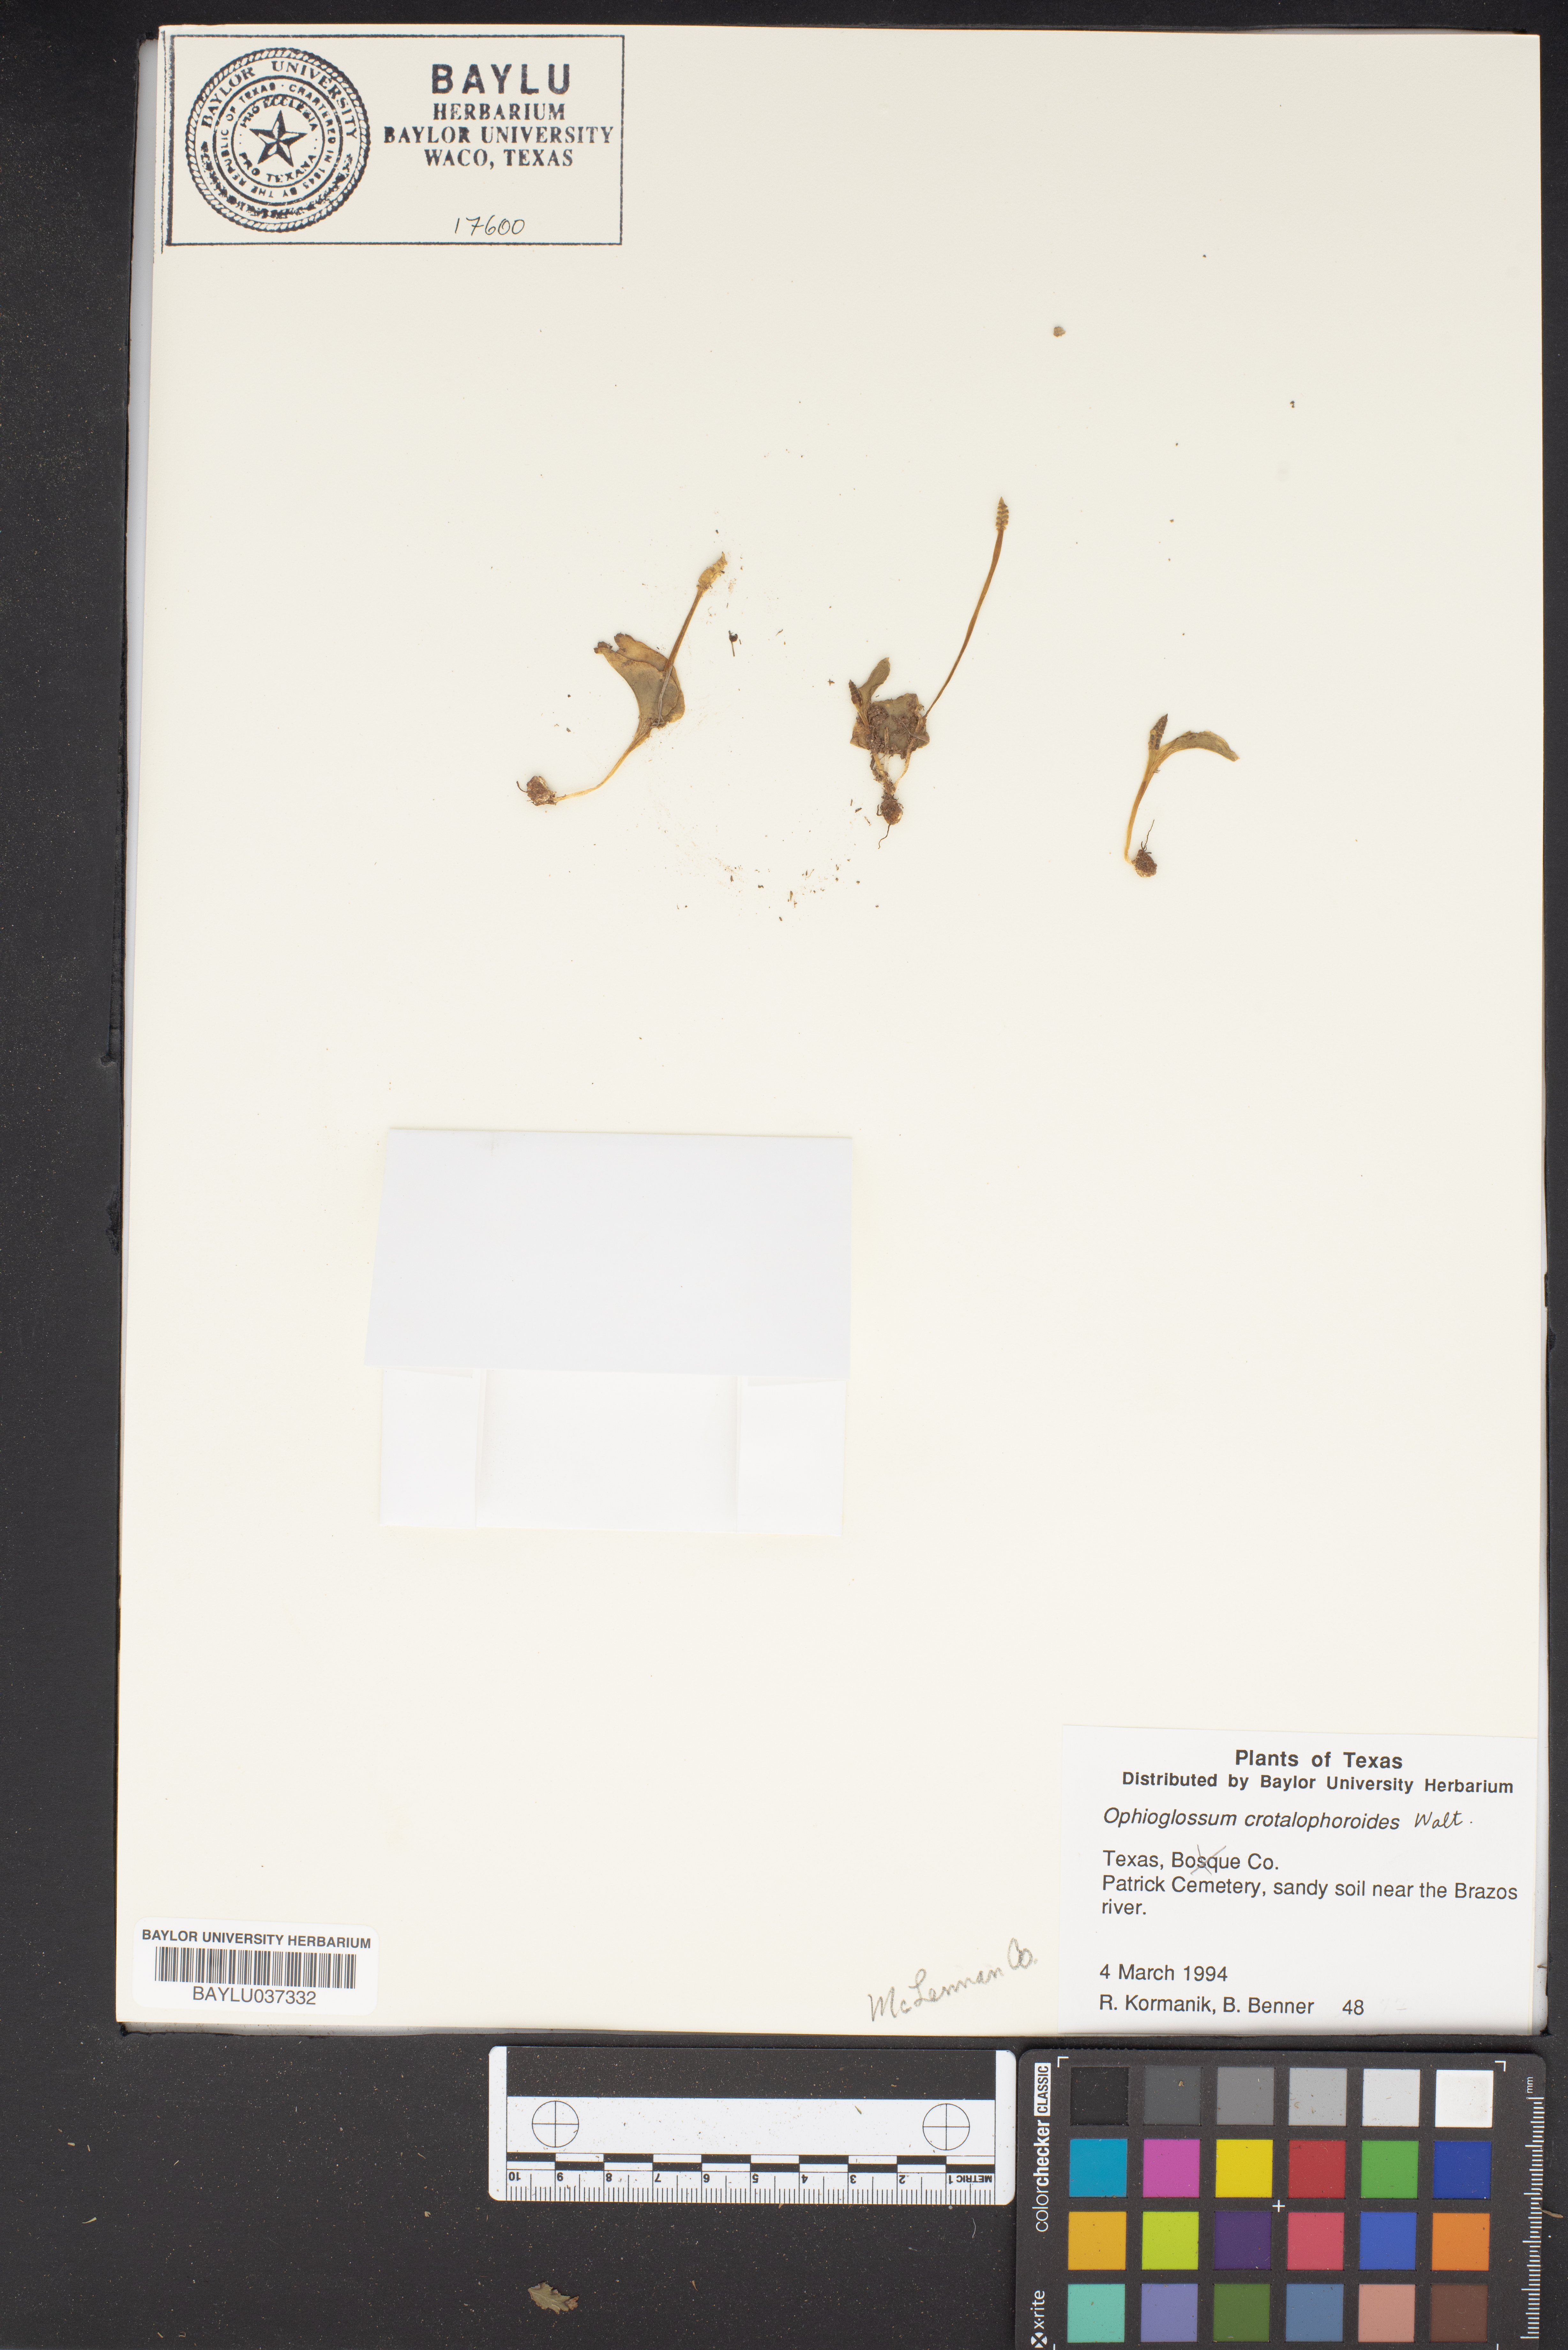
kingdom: Plantae
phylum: Tracheophyta
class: Polypodiopsida
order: Ophioglossales
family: Ophioglossaceae
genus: Ophioglossum
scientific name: Ophioglossum crotalophoroides
